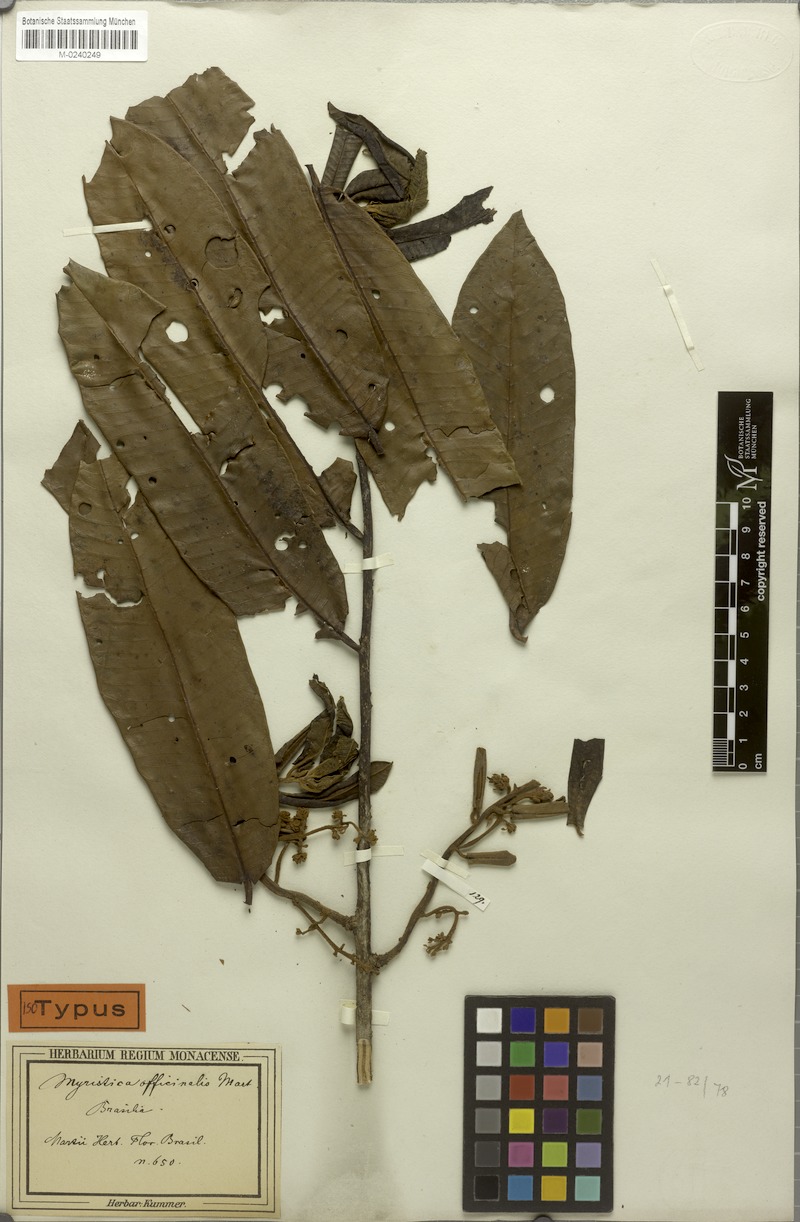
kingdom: Plantae
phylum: Tracheophyta
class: Magnoliopsida
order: Magnoliales
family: Myristicaceae
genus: Virola
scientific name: Virola officinalis
